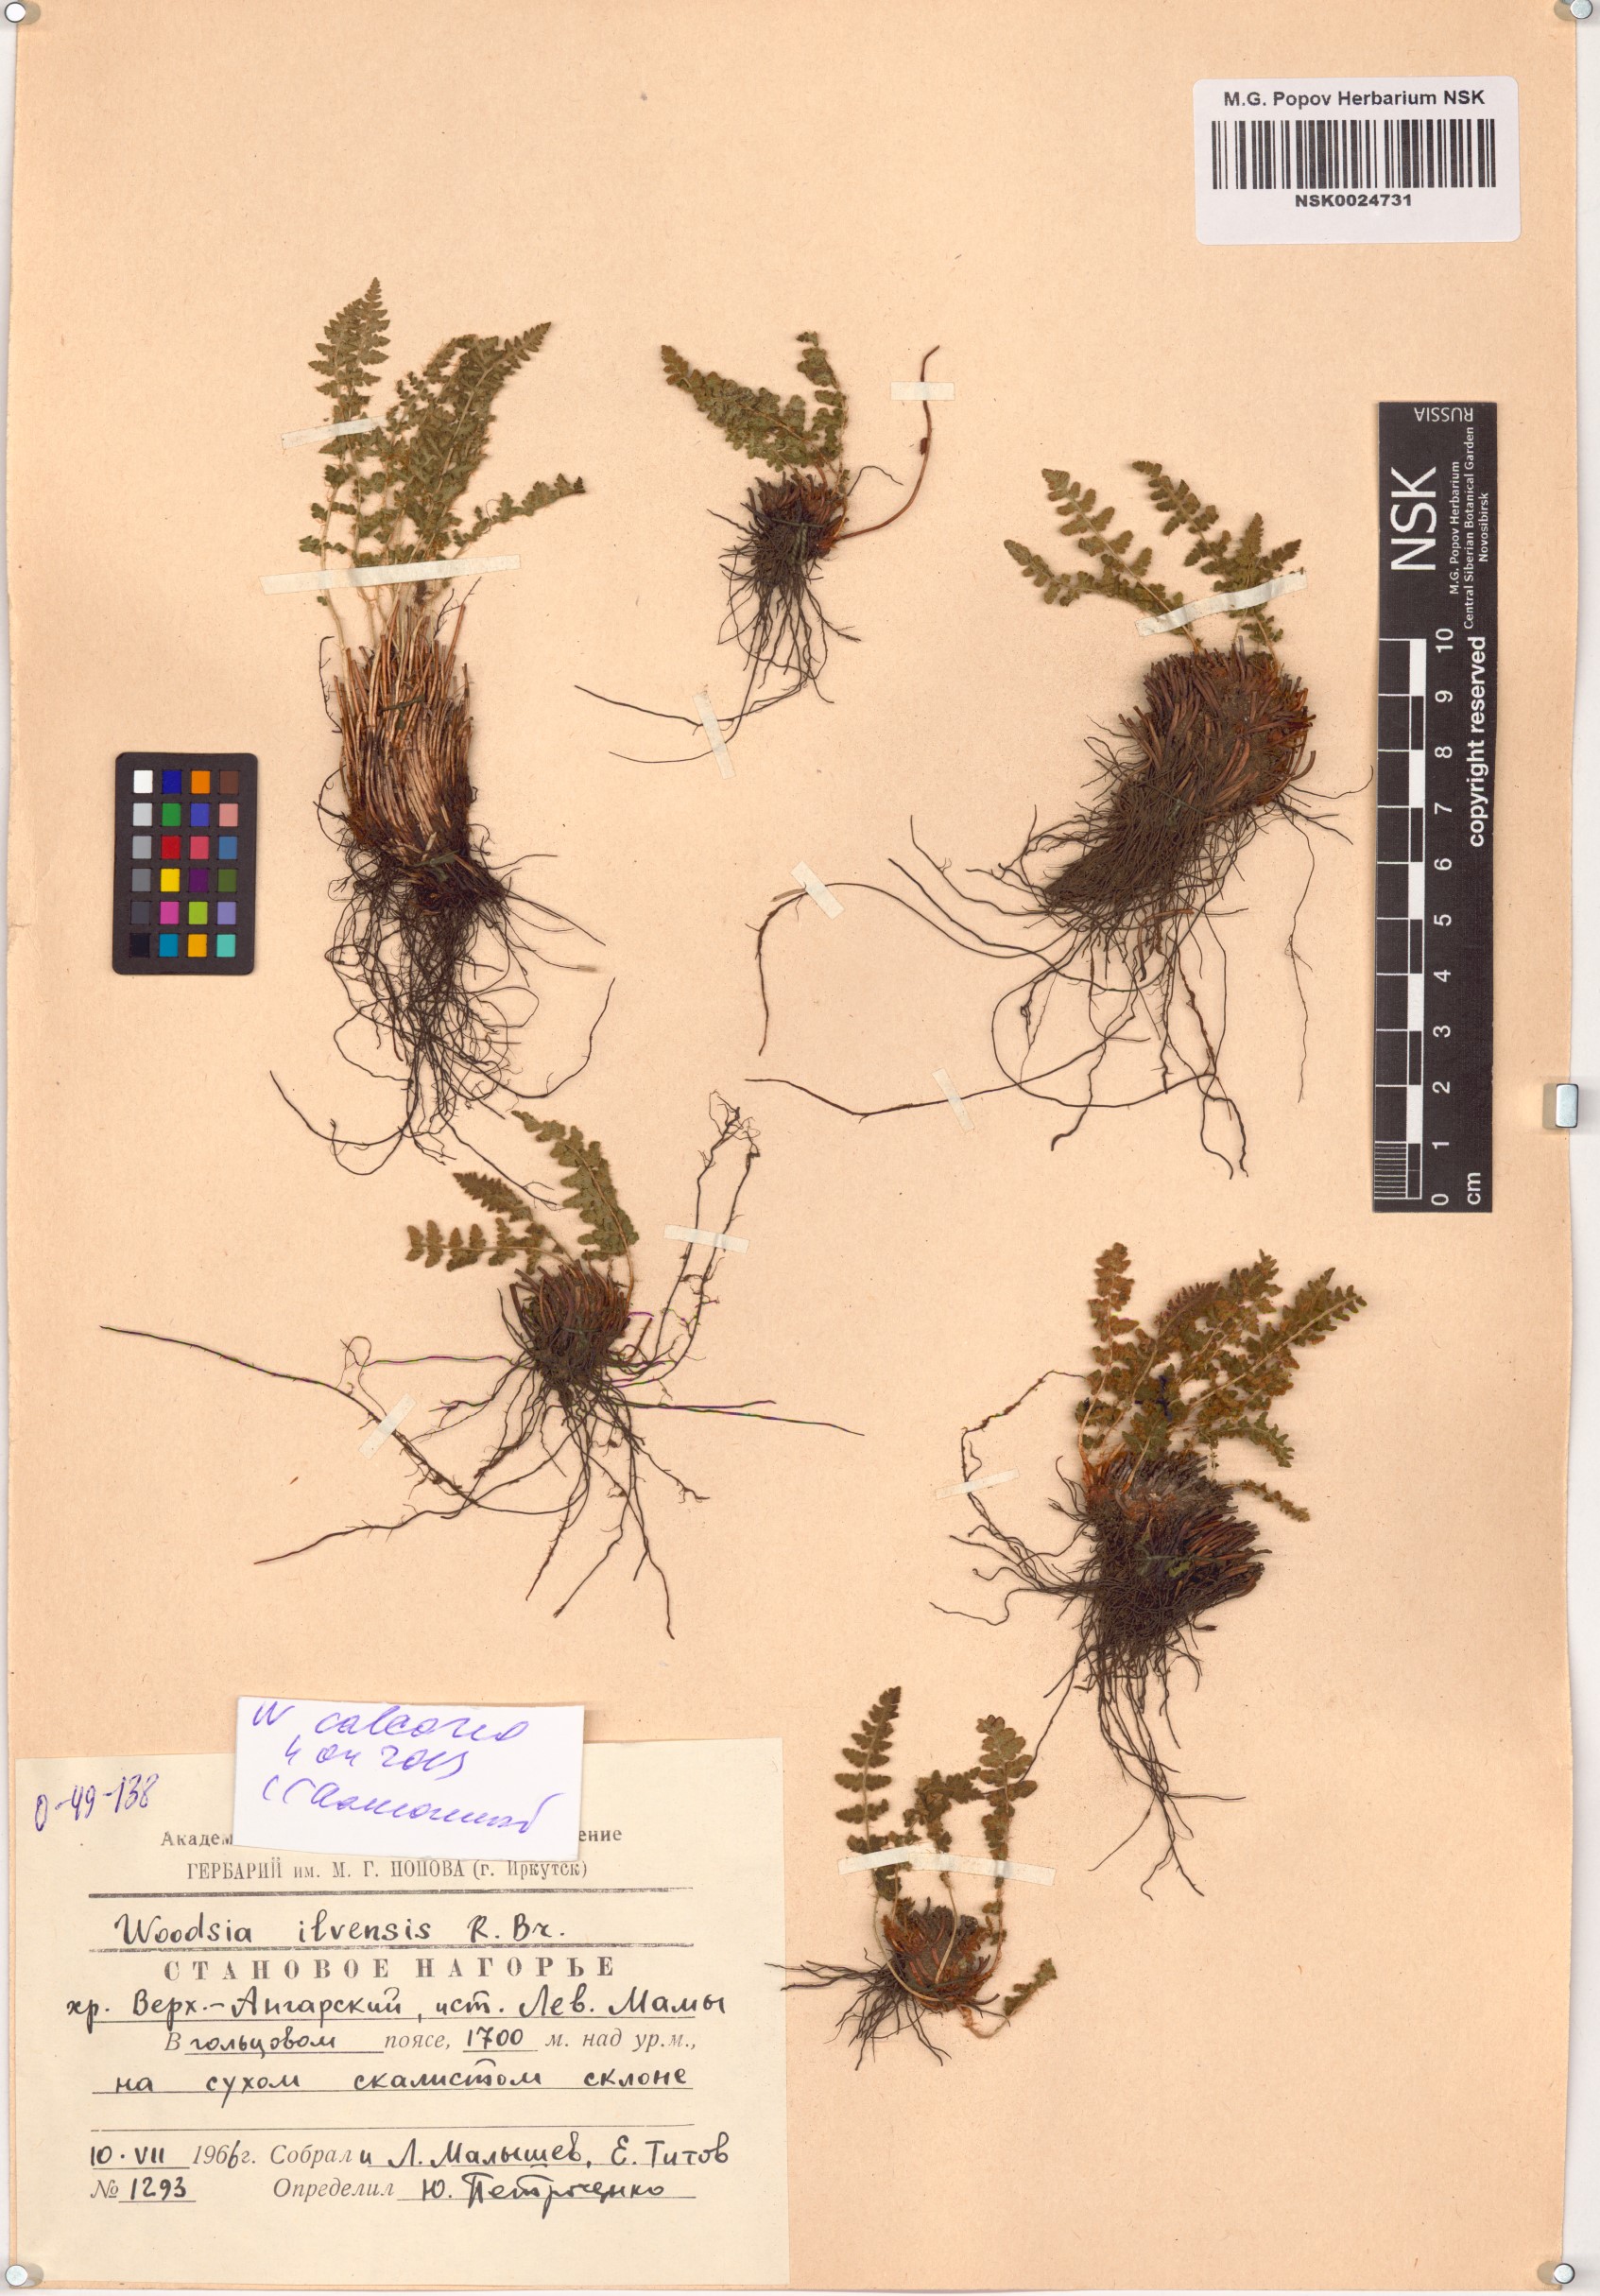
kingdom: Plantae
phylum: Tracheophyta
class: Polypodiopsida
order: Polypodiales
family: Woodsiaceae
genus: Woodsia
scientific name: Woodsia calcarea
